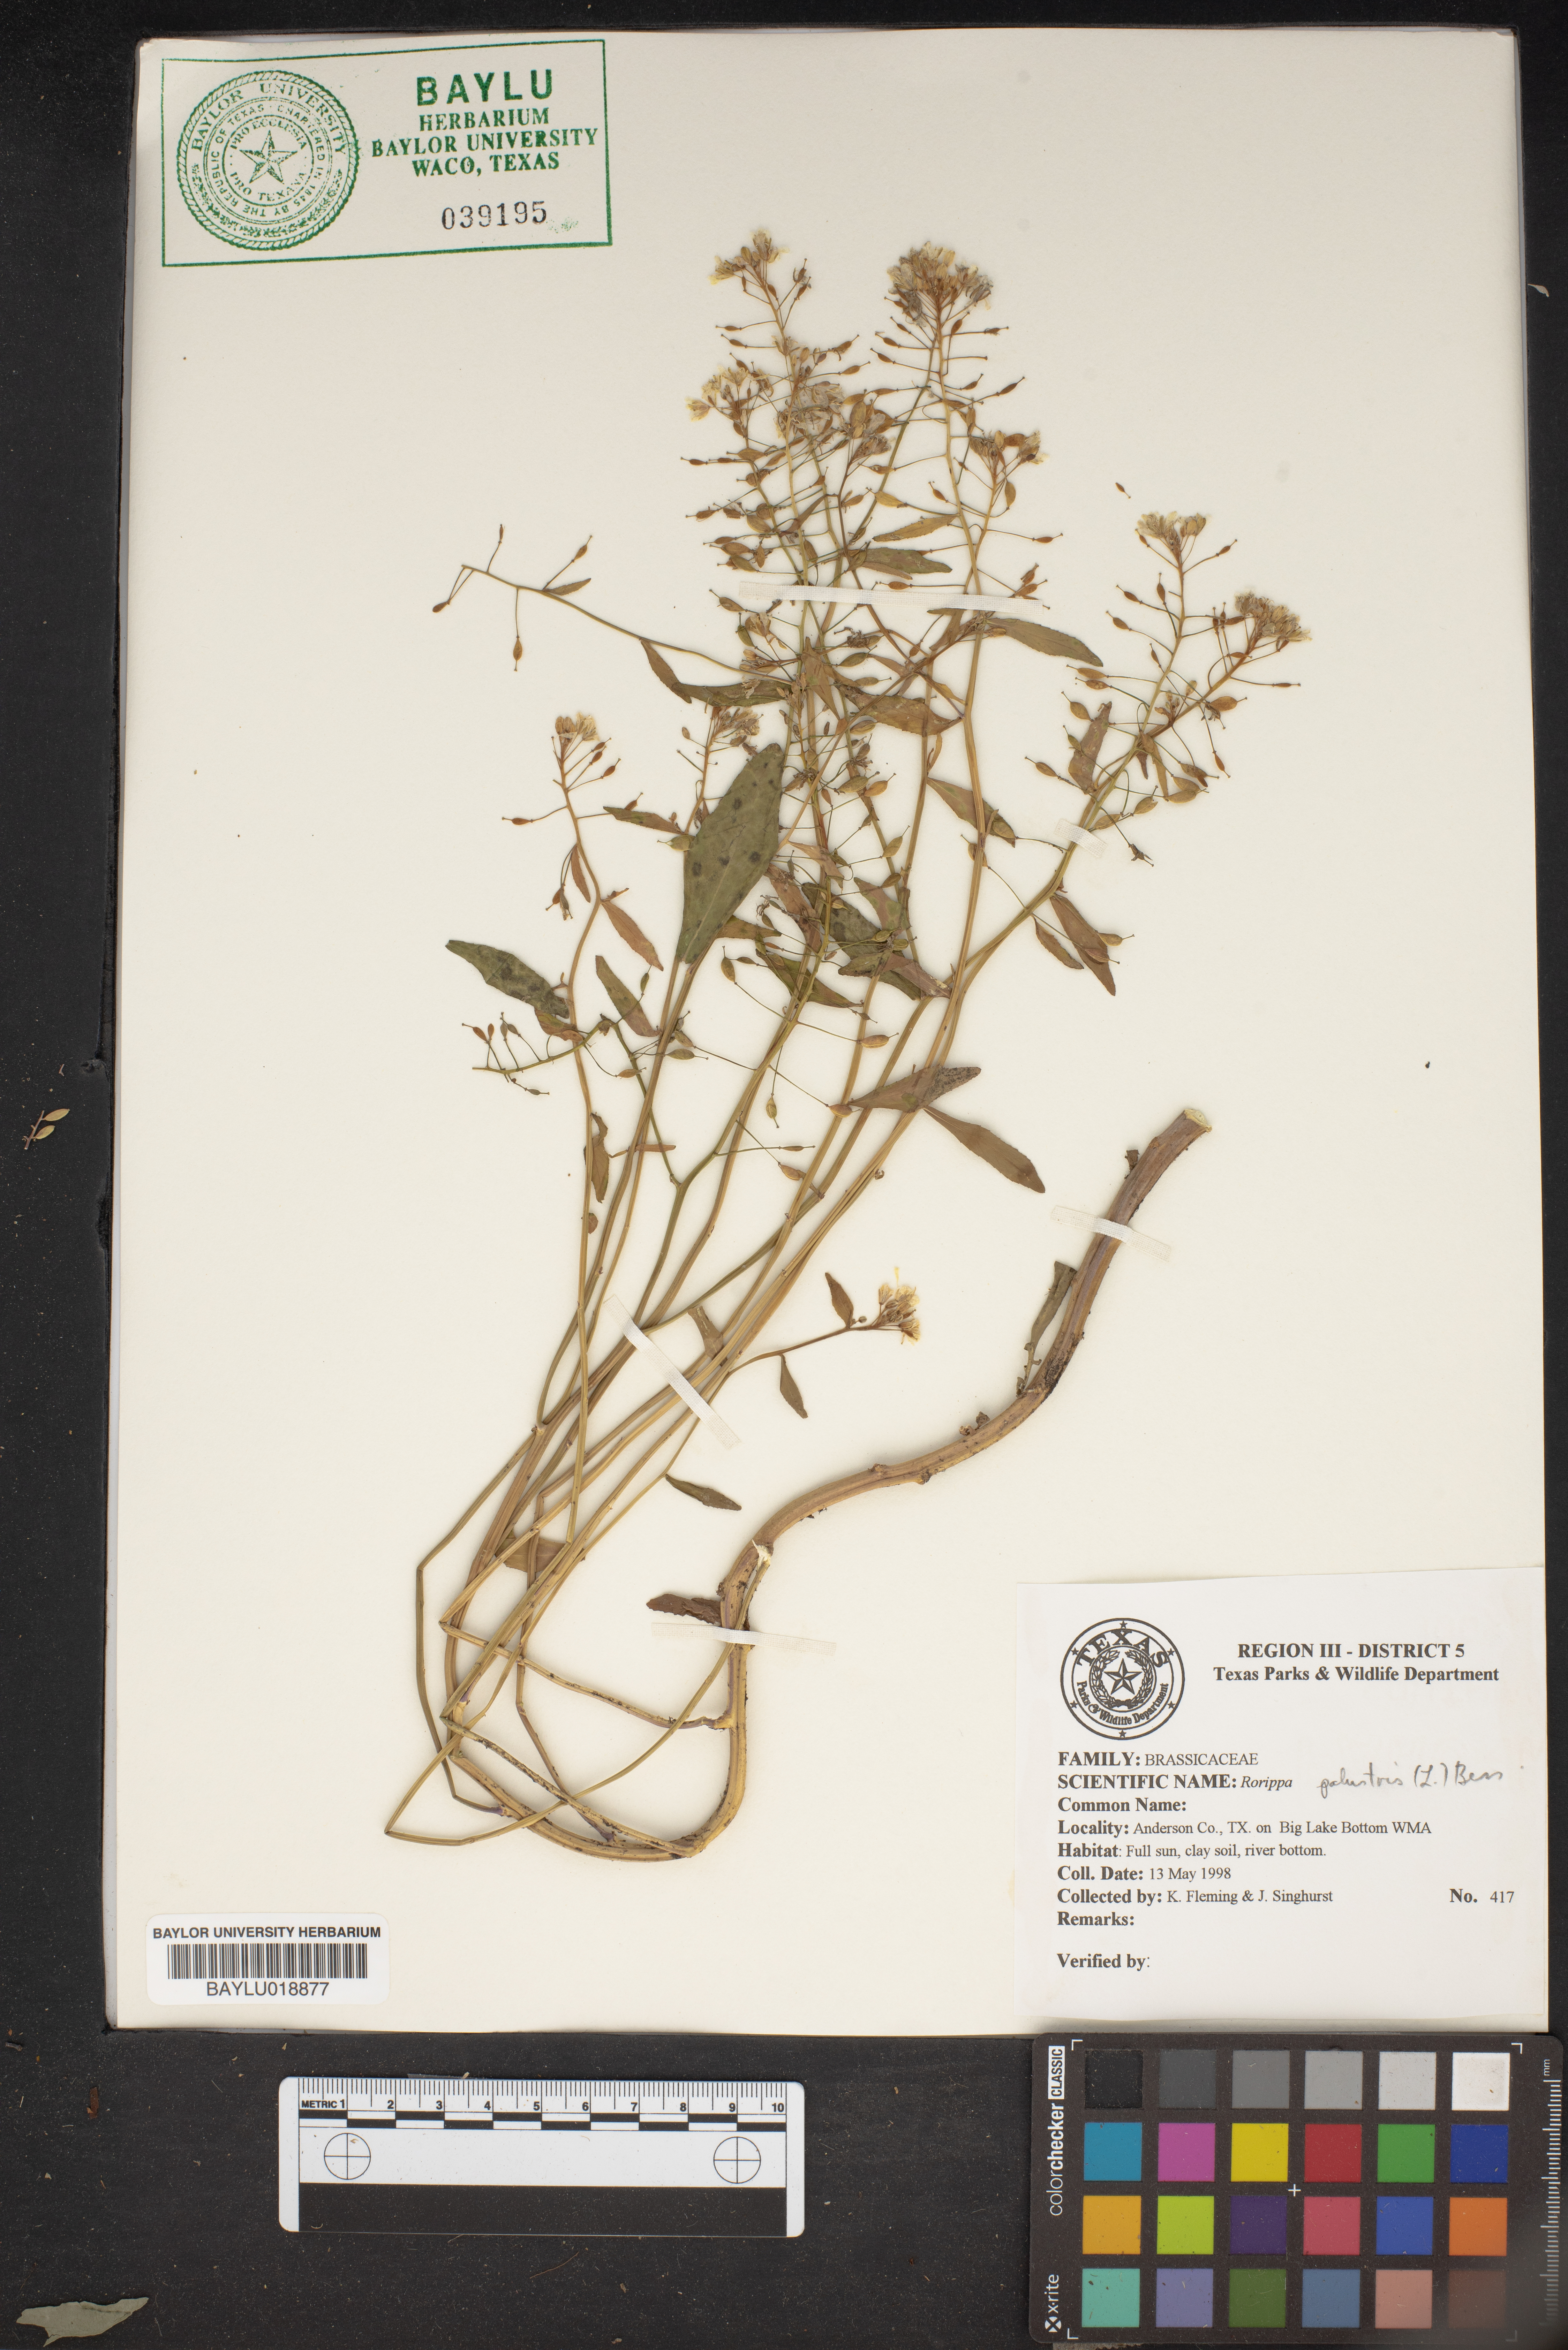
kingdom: Plantae
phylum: Tracheophyta
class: Magnoliopsida
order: Brassicales
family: Brassicaceae
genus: Rorippa
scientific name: Rorippa palustris
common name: Marsh yellow-cress
